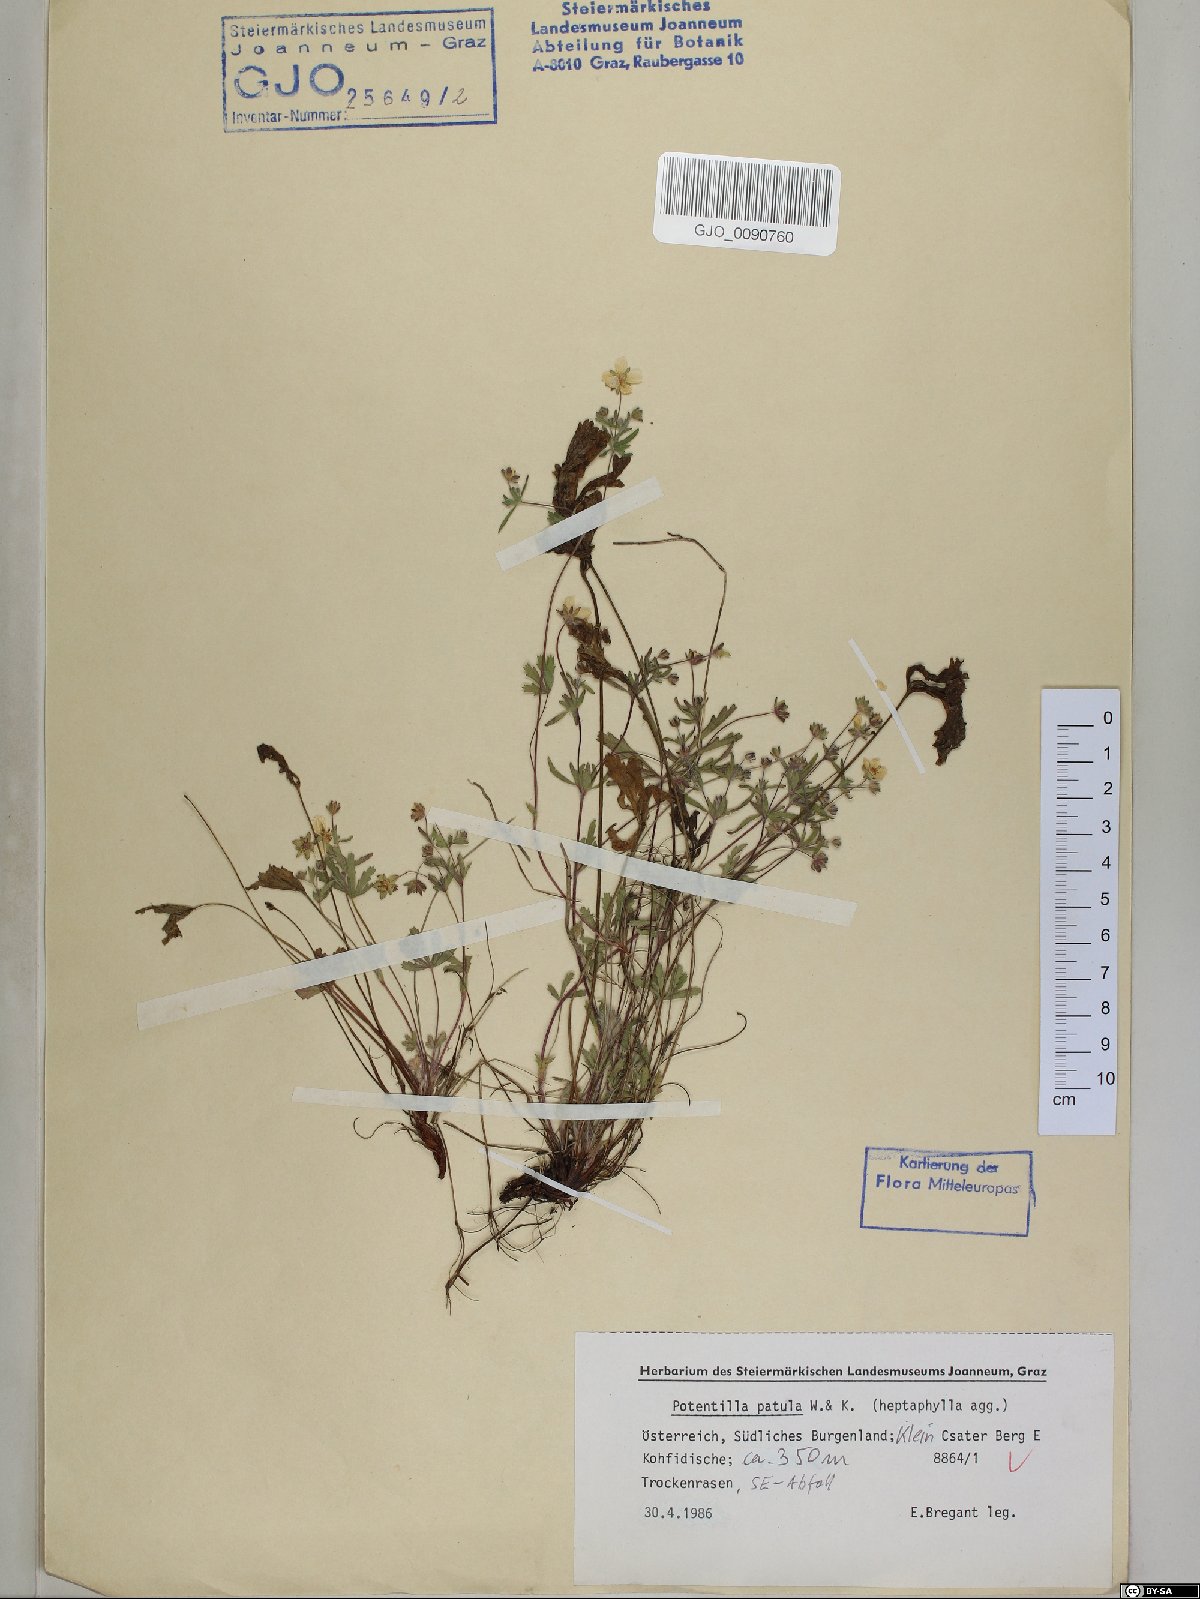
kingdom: Plantae
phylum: Tracheophyta
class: Magnoliopsida
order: Rosales
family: Rosaceae
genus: Potentilla
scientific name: Potentilla patula
